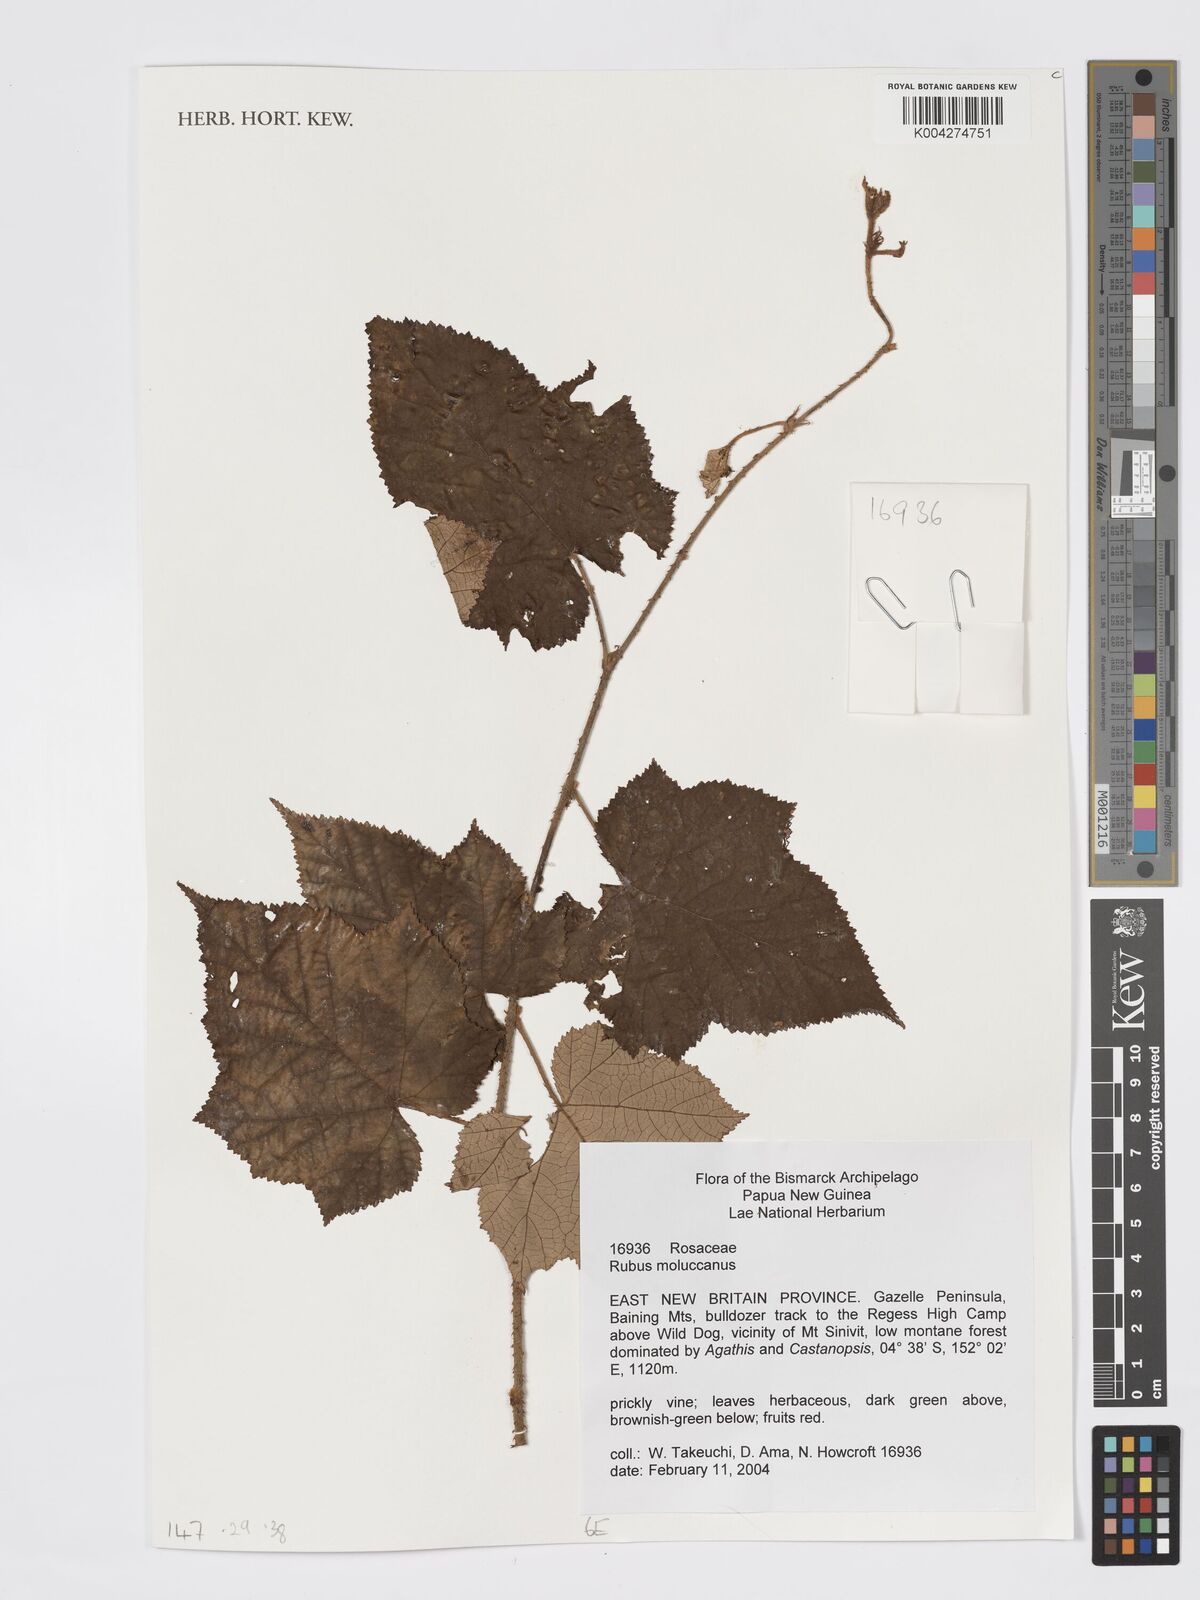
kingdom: Plantae
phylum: Tracheophyta
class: Magnoliopsida
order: Rosales
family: Rosaceae
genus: Rubus
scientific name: Rubus moluccanus
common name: Wild raspberry
